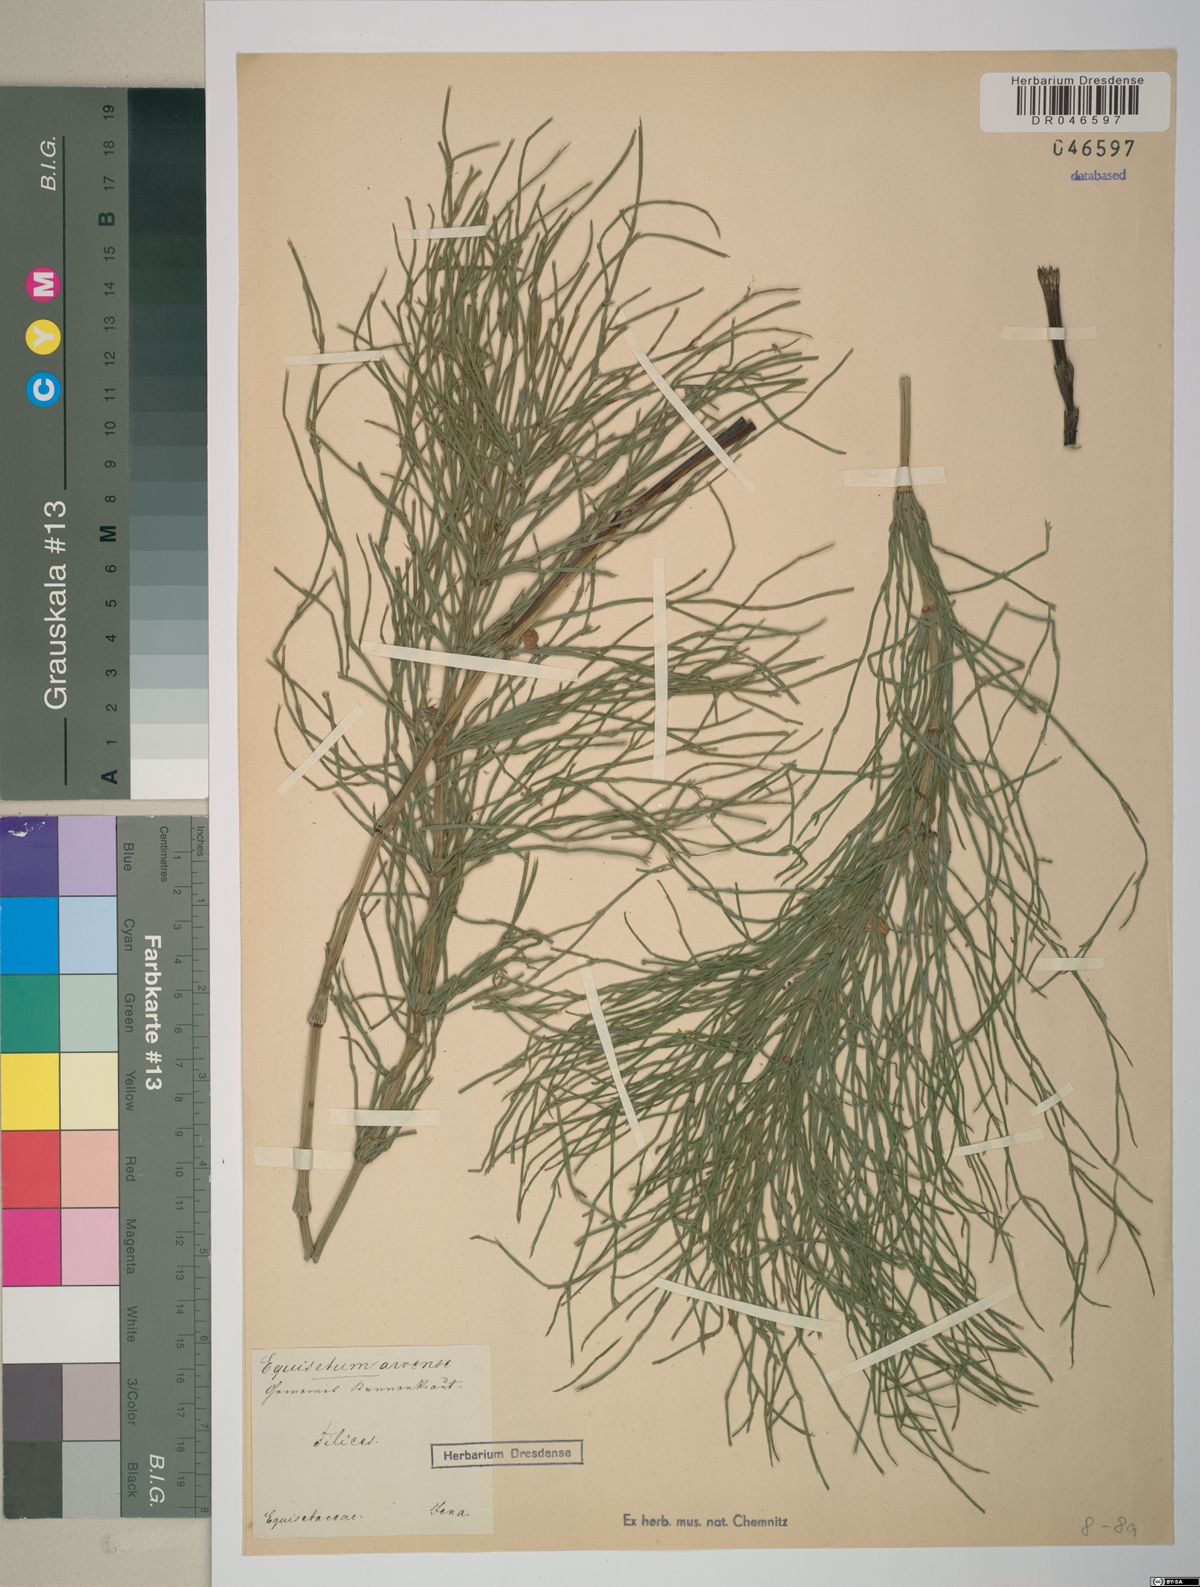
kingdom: Plantae
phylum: Tracheophyta
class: Polypodiopsida
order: Equisetales
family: Equisetaceae
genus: Equisetum
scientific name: Equisetum arvense
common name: Field horsetail
